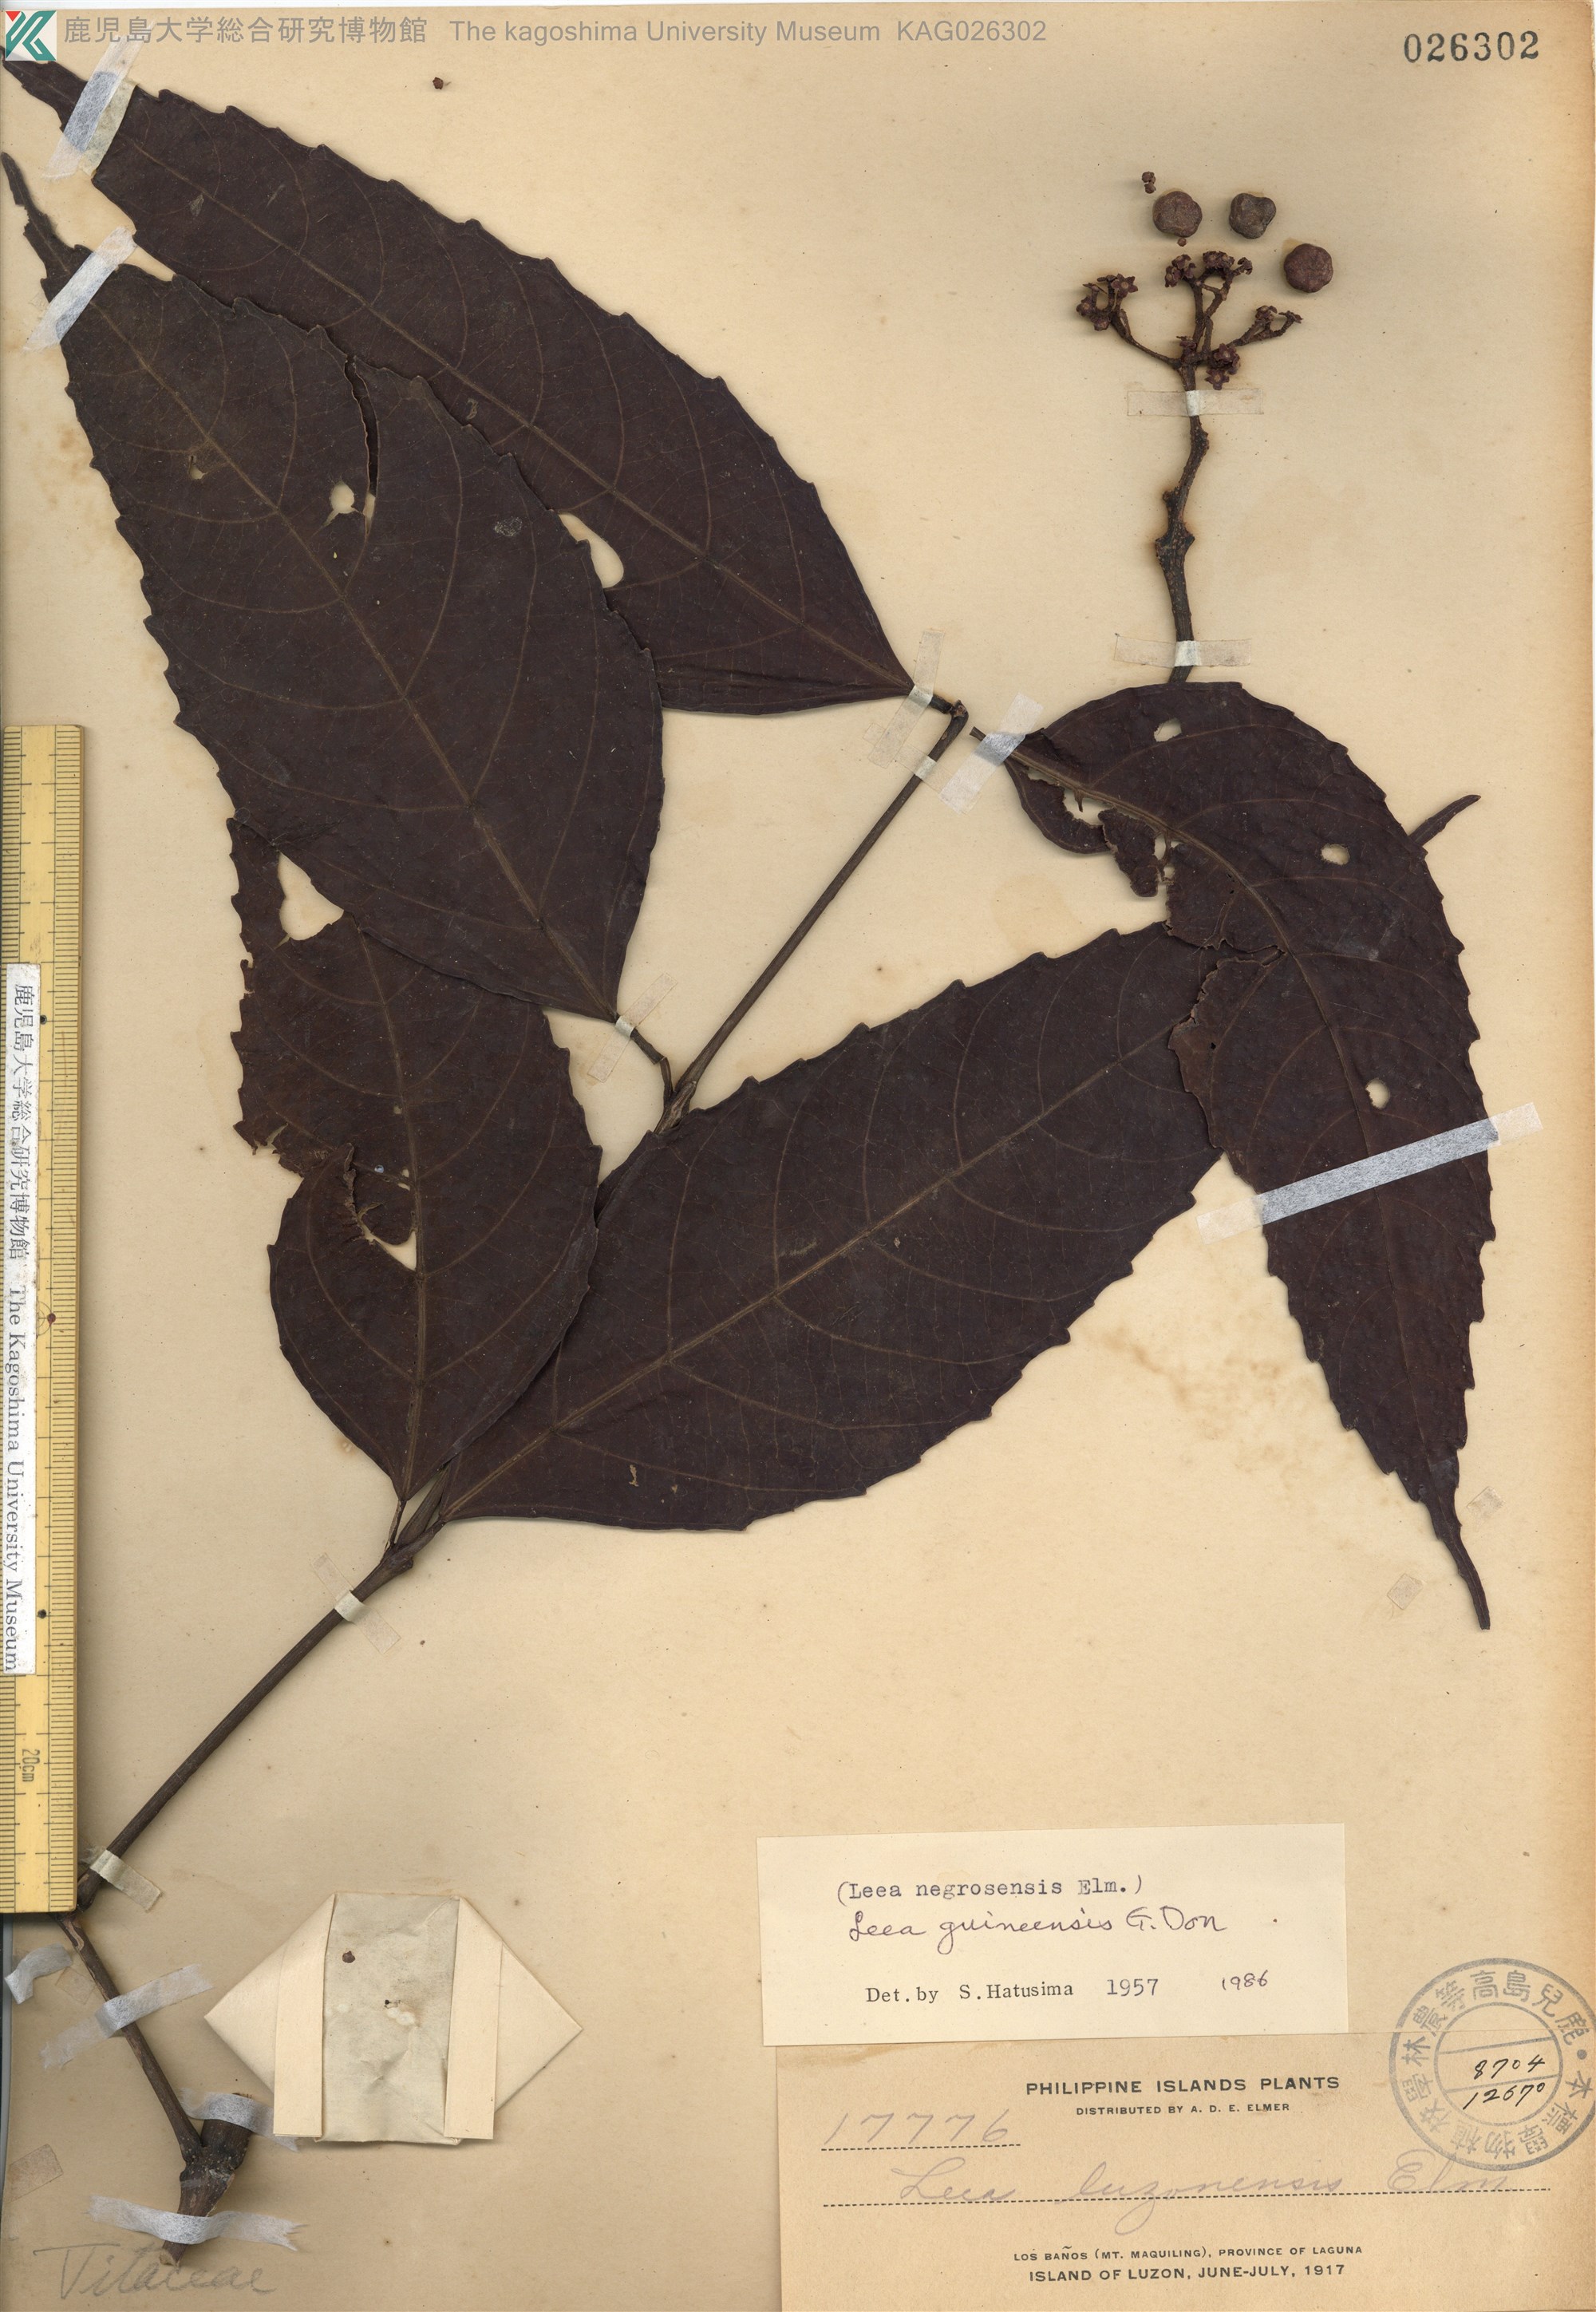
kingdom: Plantae
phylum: Tracheophyta
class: Magnoliopsida
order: Vitales
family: Vitaceae
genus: Leea
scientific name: Leea guineensis
